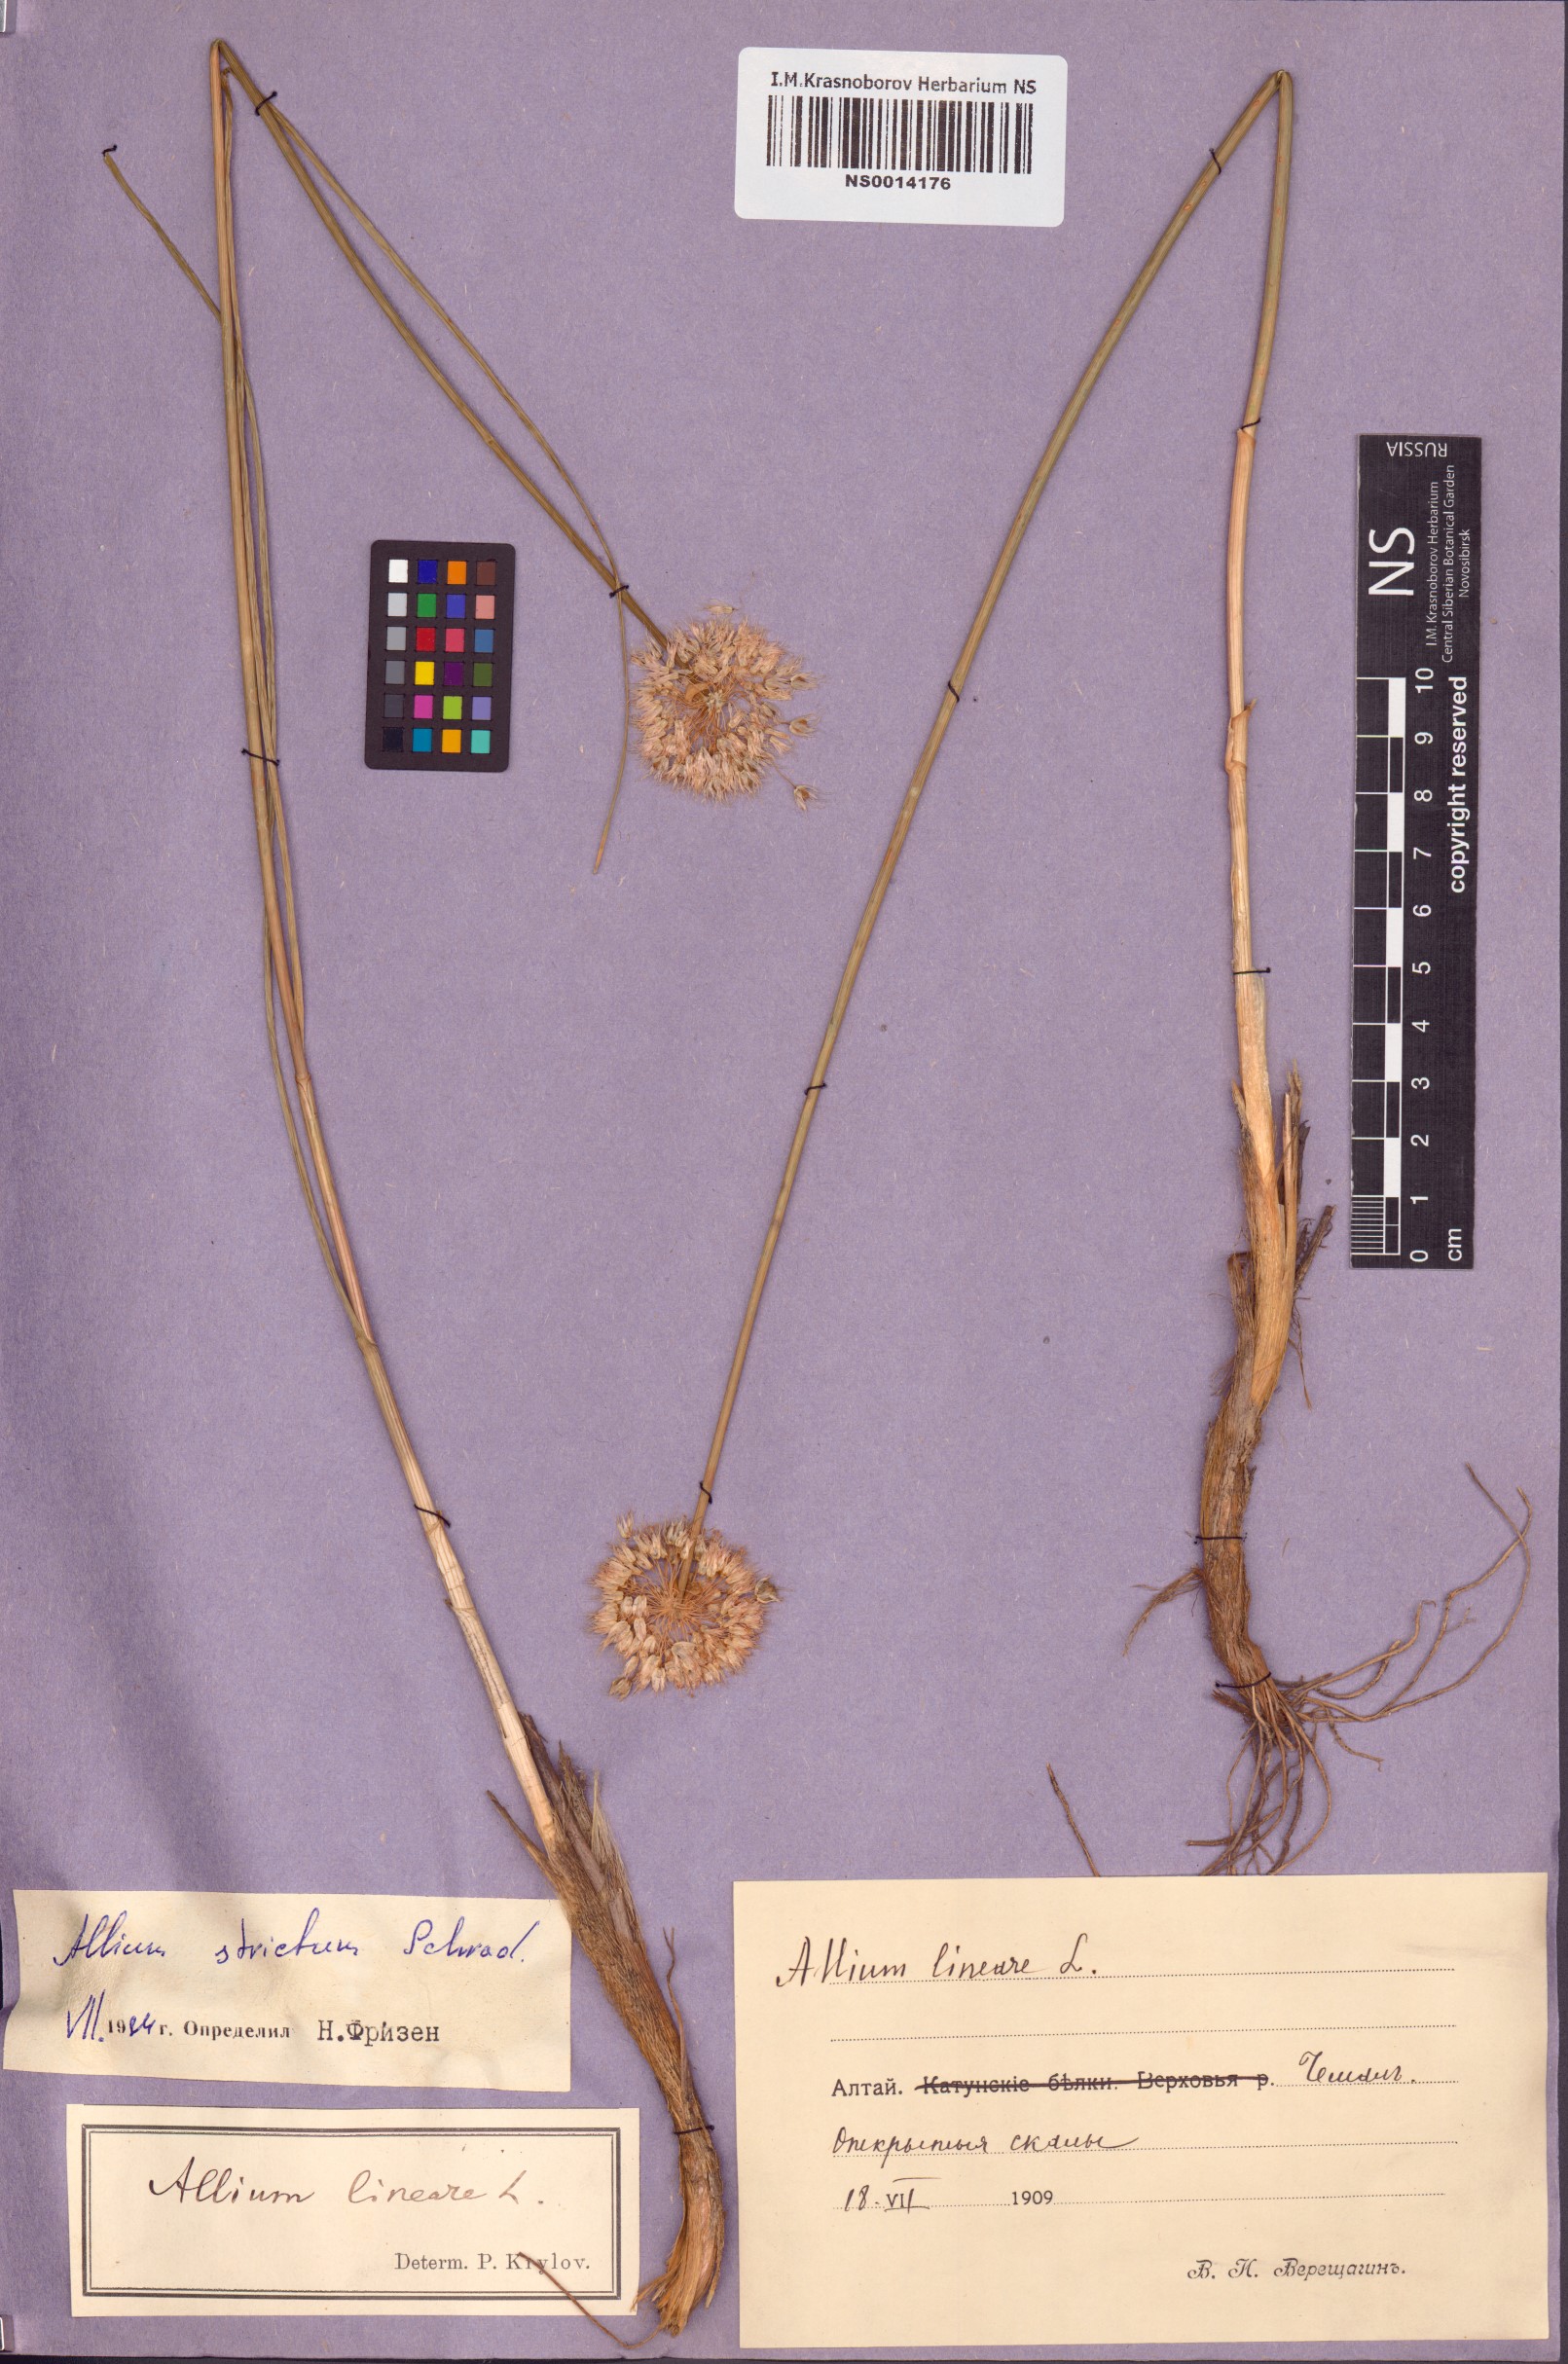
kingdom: Plantae
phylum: Tracheophyta
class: Liliopsida
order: Asparagales
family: Amaryllidaceae
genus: Allium
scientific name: Allium strictum
